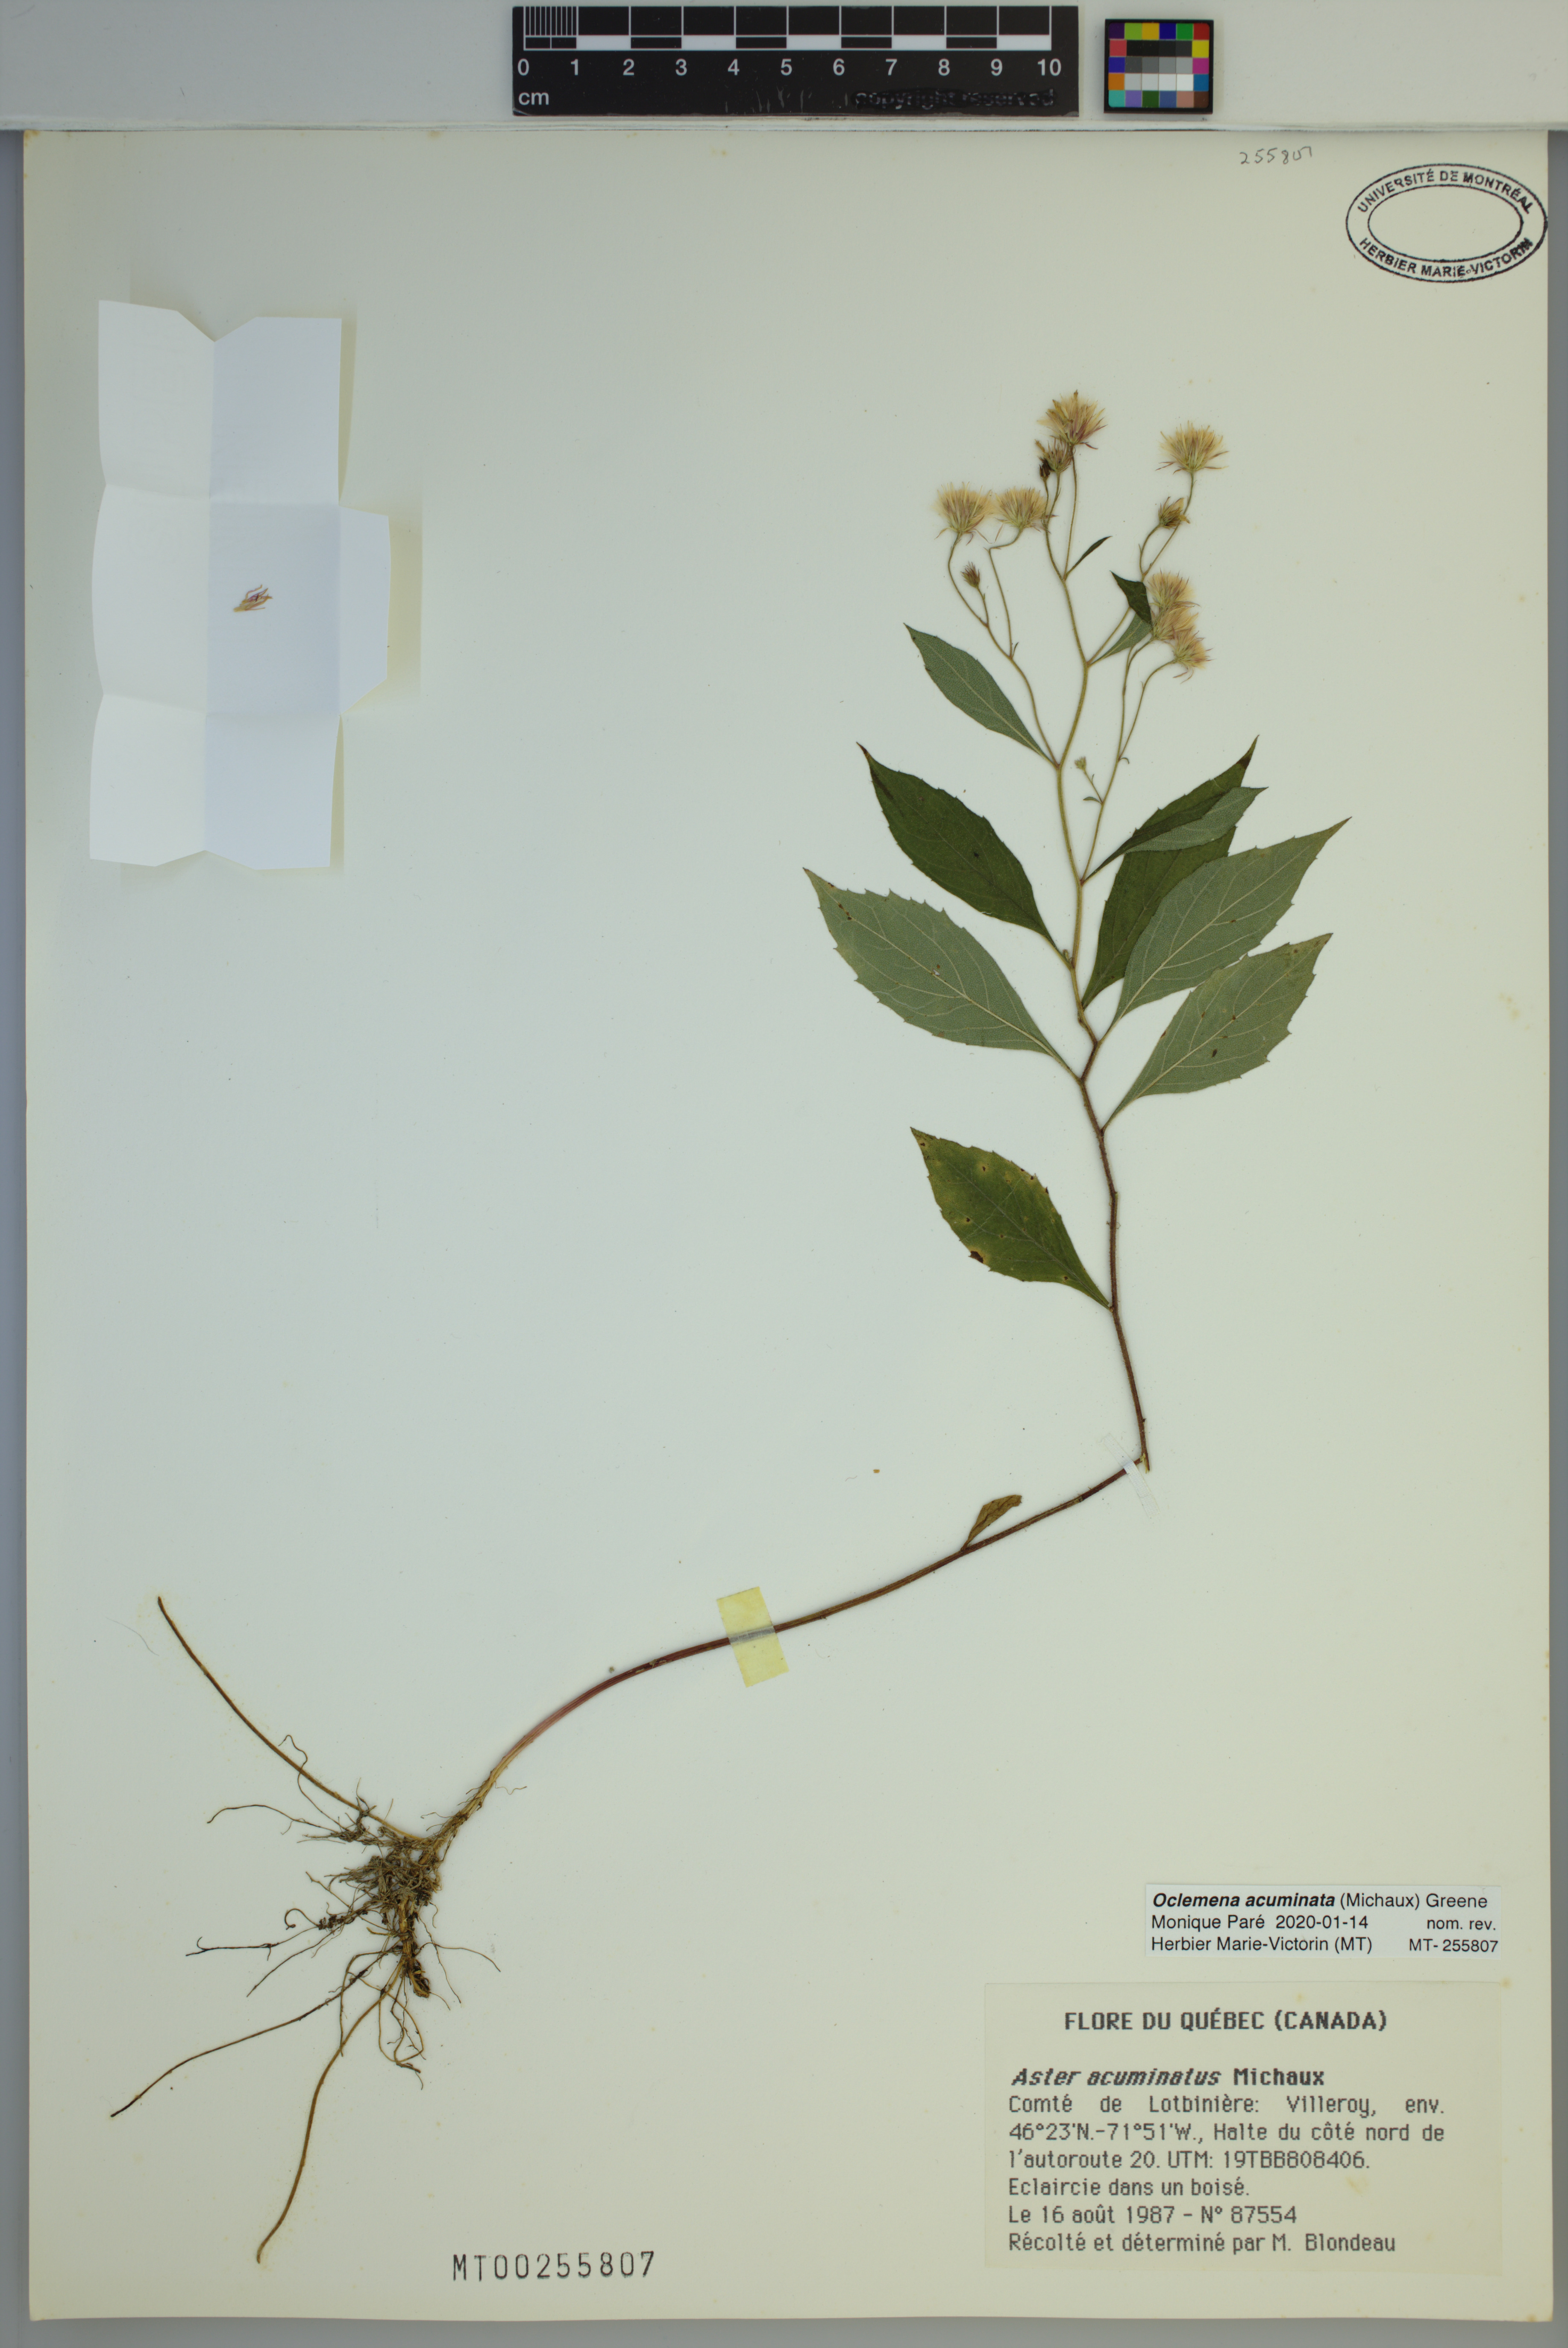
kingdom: Plantae
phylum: Tracheophyta
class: Magnoliopsida
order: Asterales
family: Asteraceae
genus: Oclemena
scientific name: Oclemena acuminata
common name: Mountain aster
